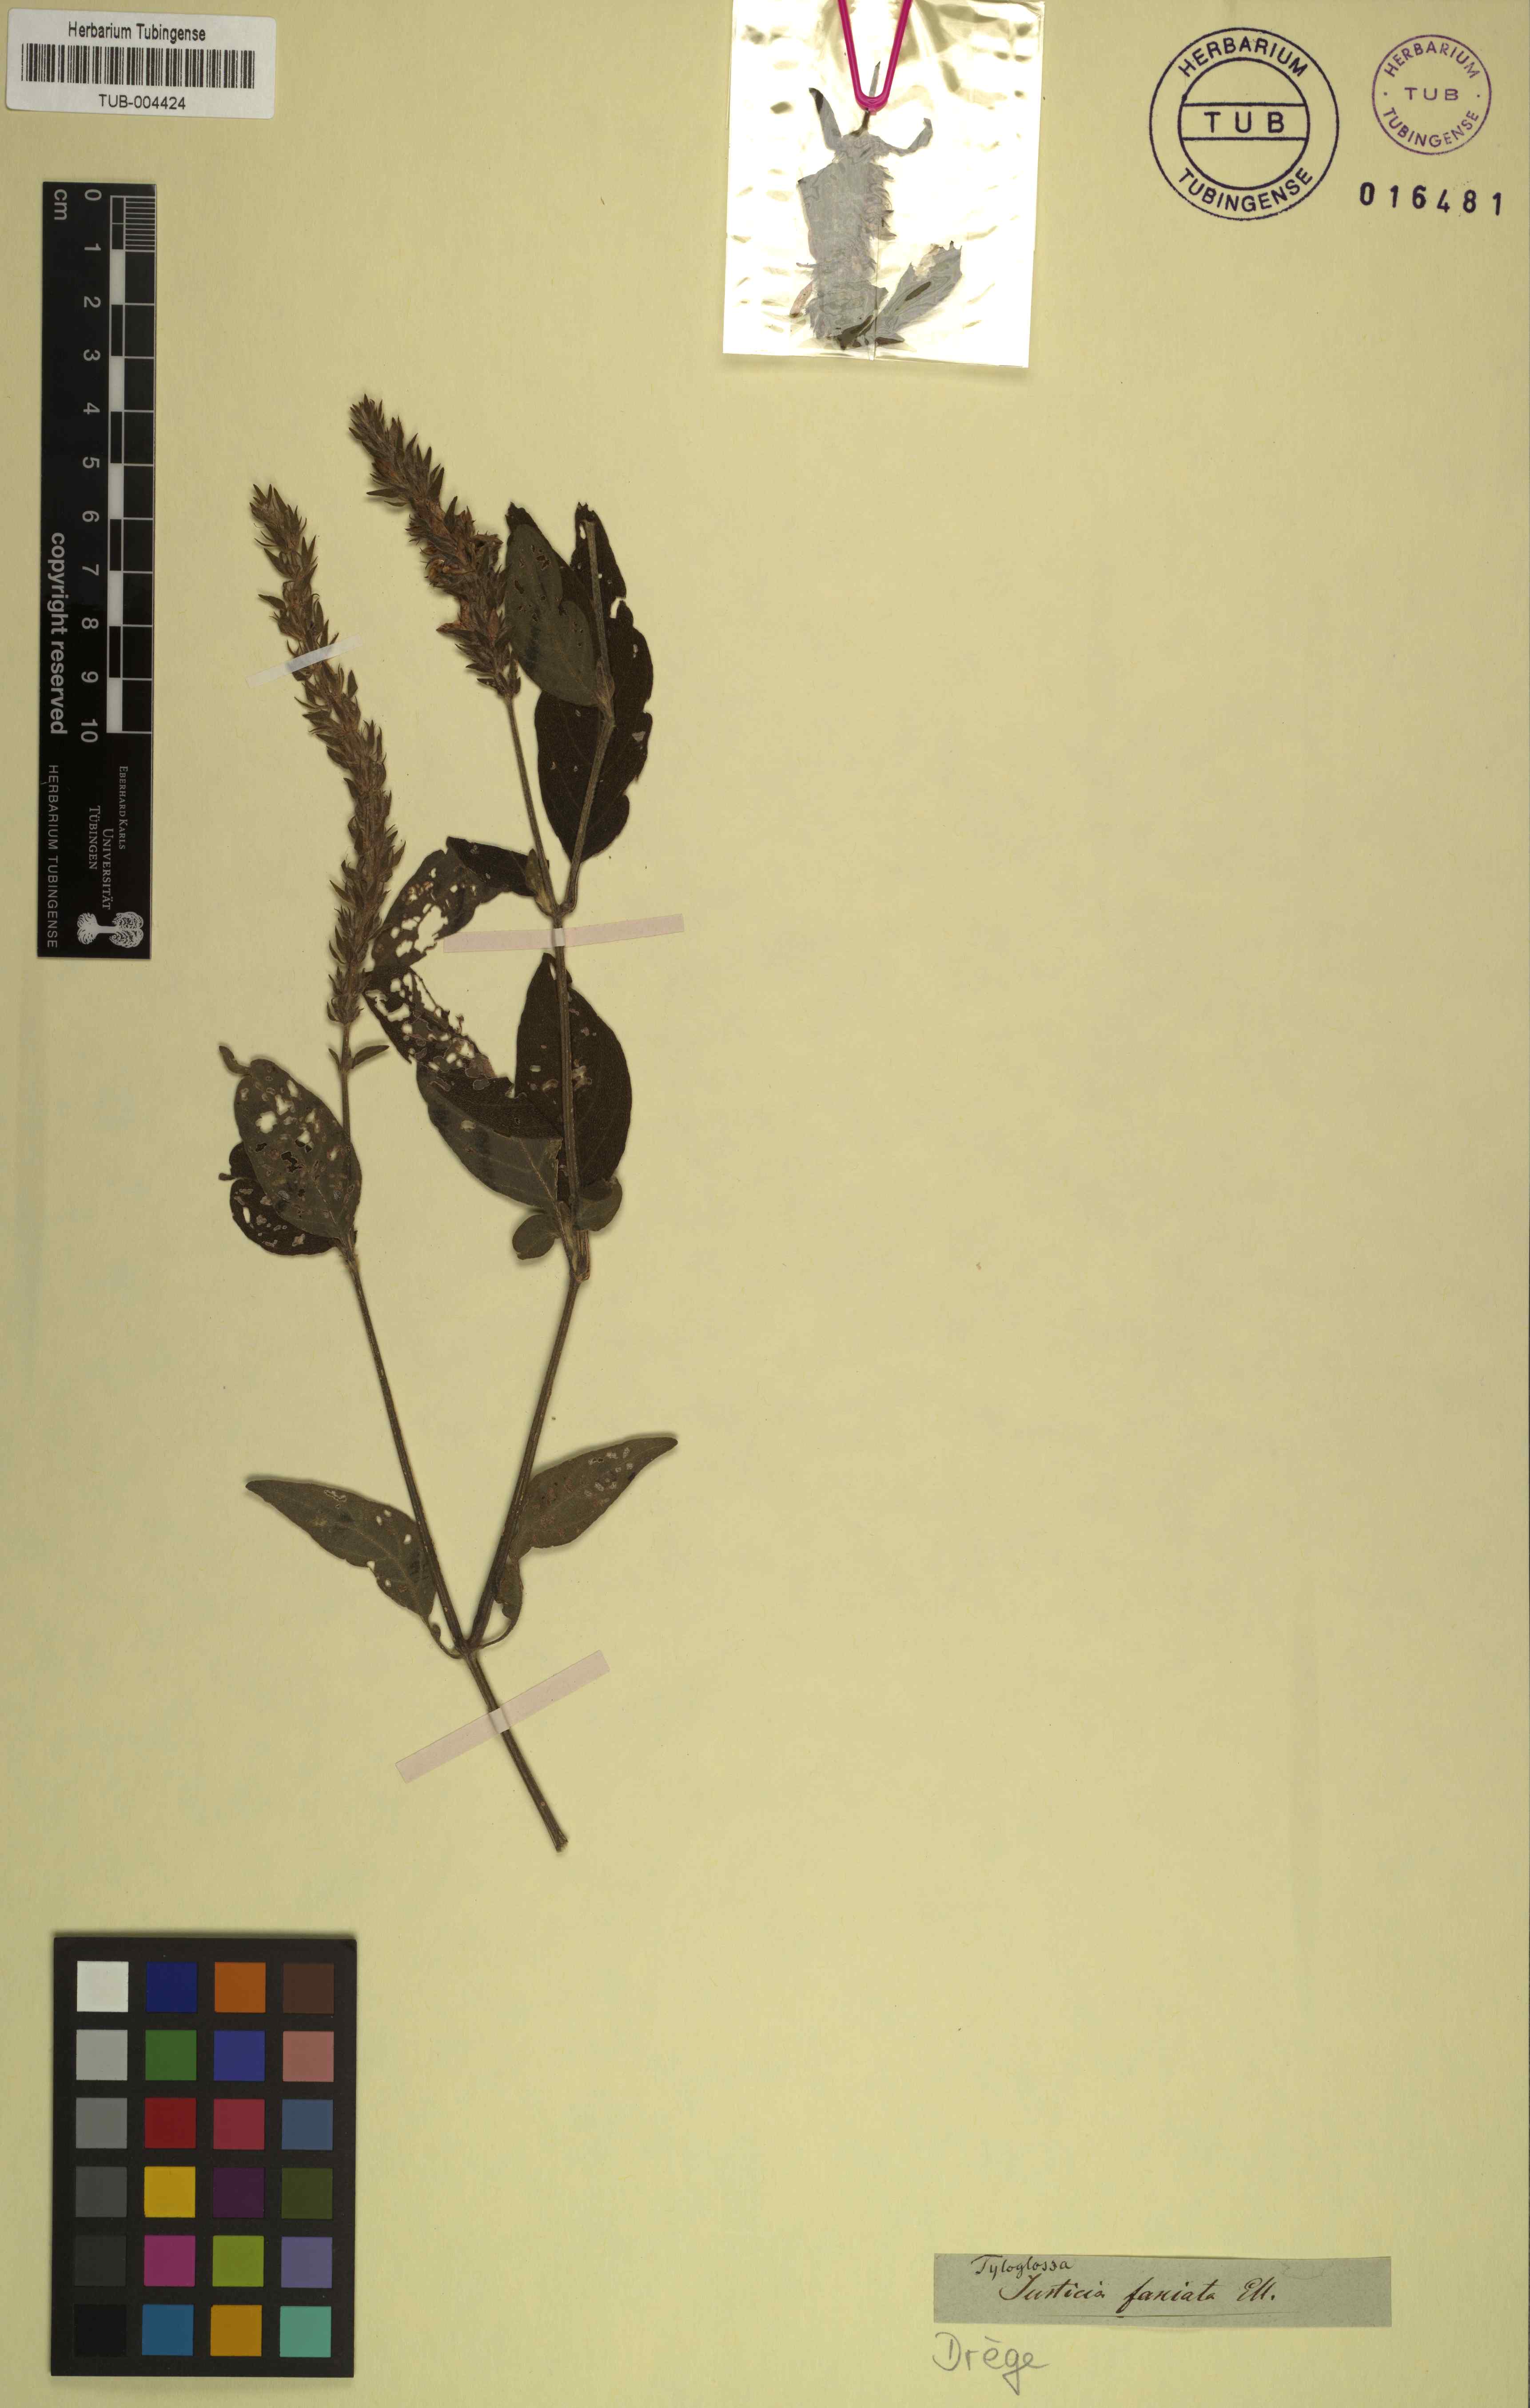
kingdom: Plantae
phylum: Tracheophyta
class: Magnoliopsida
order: Lamiales
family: Acanthaceae
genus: Justicia
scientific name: Justicia flava
